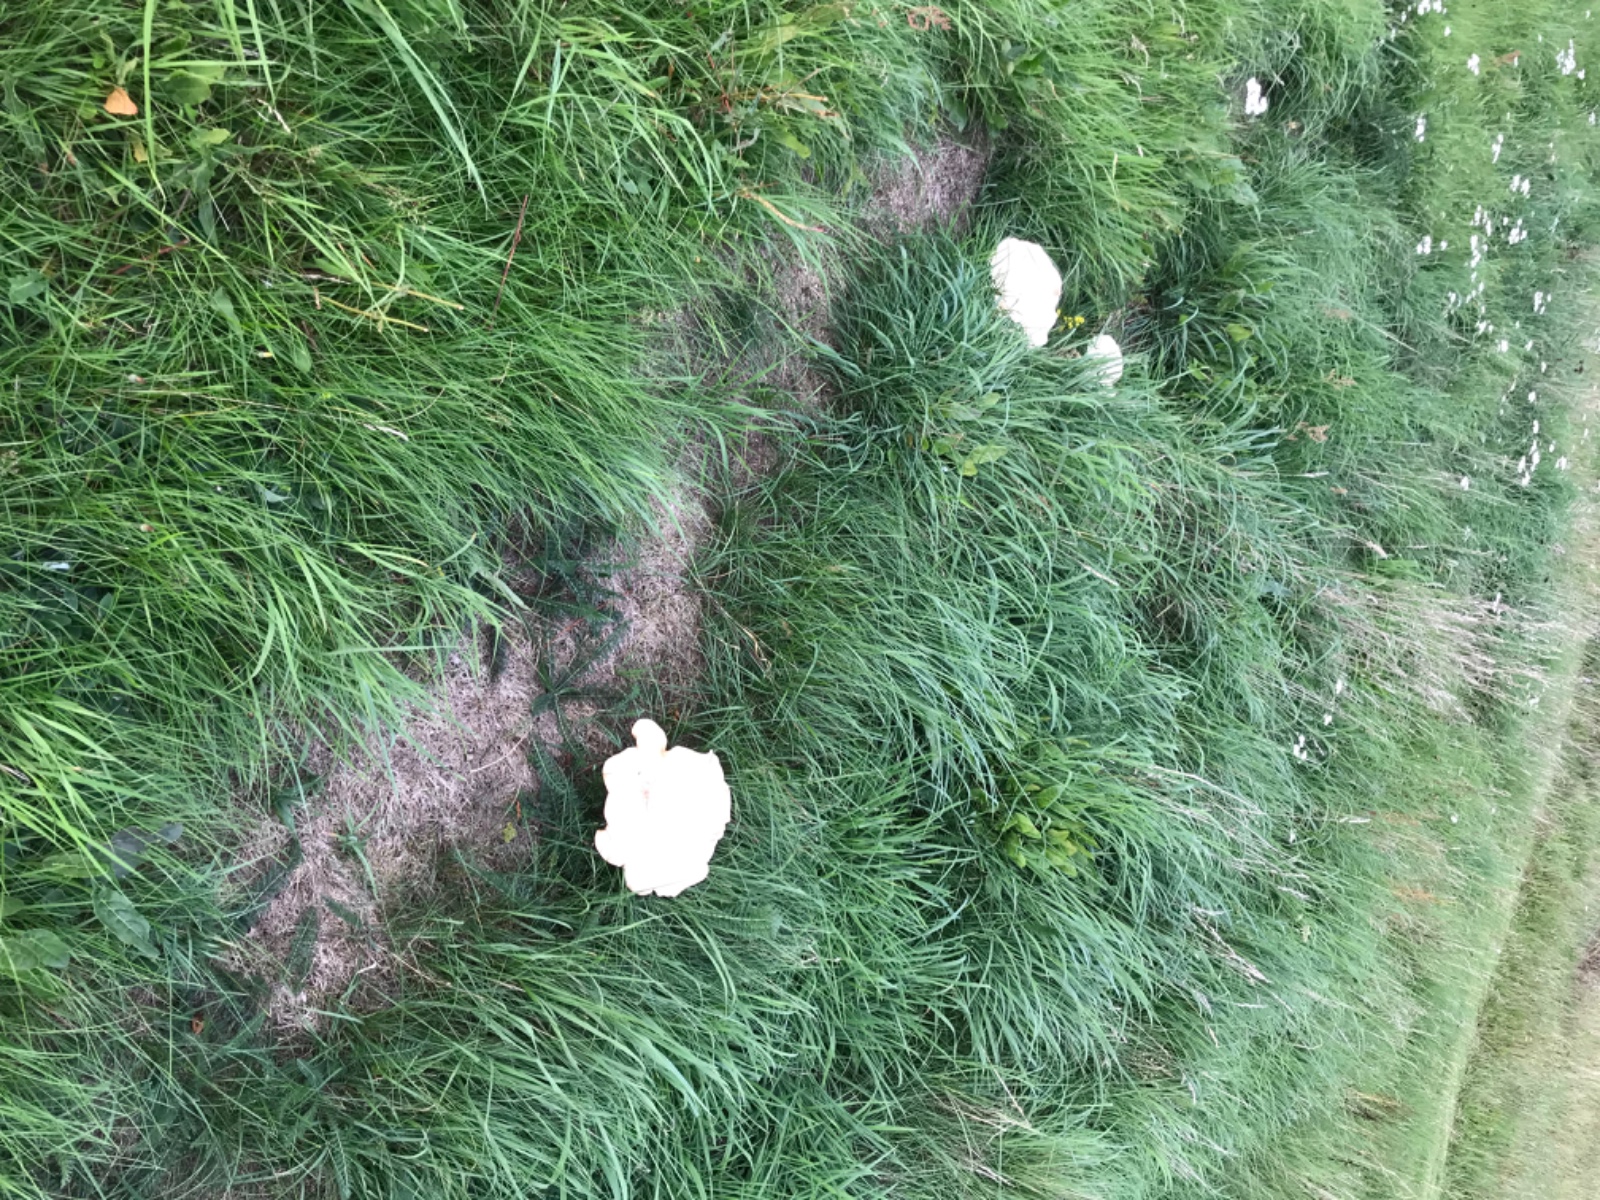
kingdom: Fungi
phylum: Basidiomycota
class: Agaricomycetes
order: Agaricales
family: Tricholomataceae
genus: Aspropaxillus
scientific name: Aspropaxillus giganteus
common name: kæmpe-tragtridderhat
